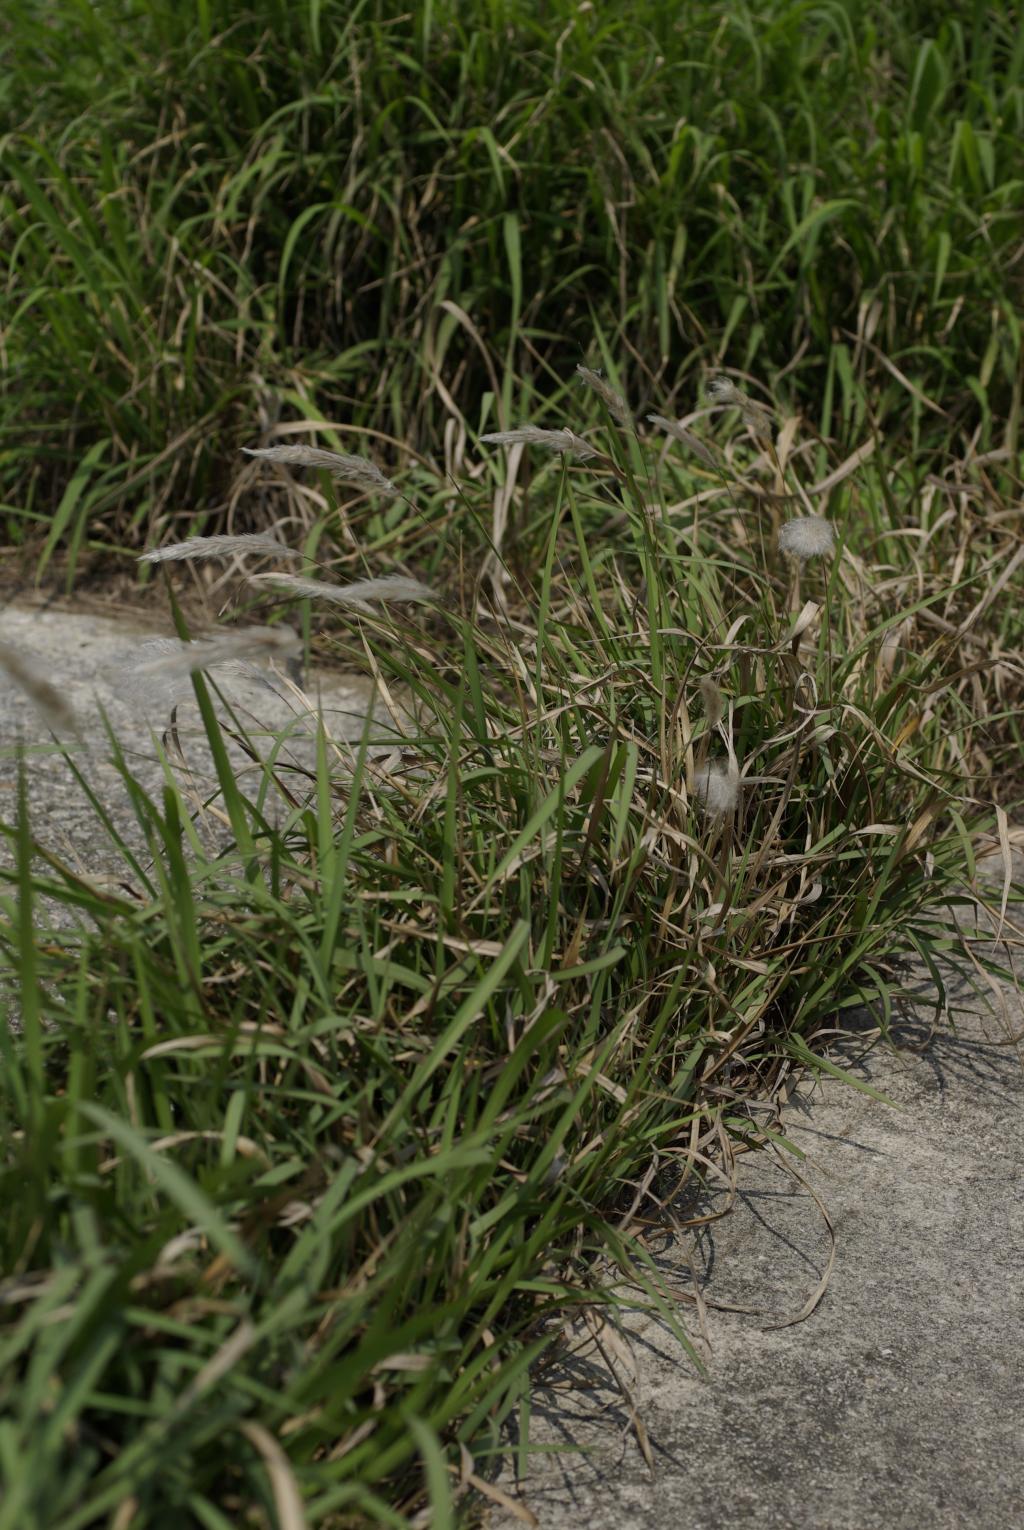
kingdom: Plantae
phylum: Tracheophyta
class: Liliopsida
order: Poales
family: Poaceae
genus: Imperata
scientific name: Imperata cylindrica
